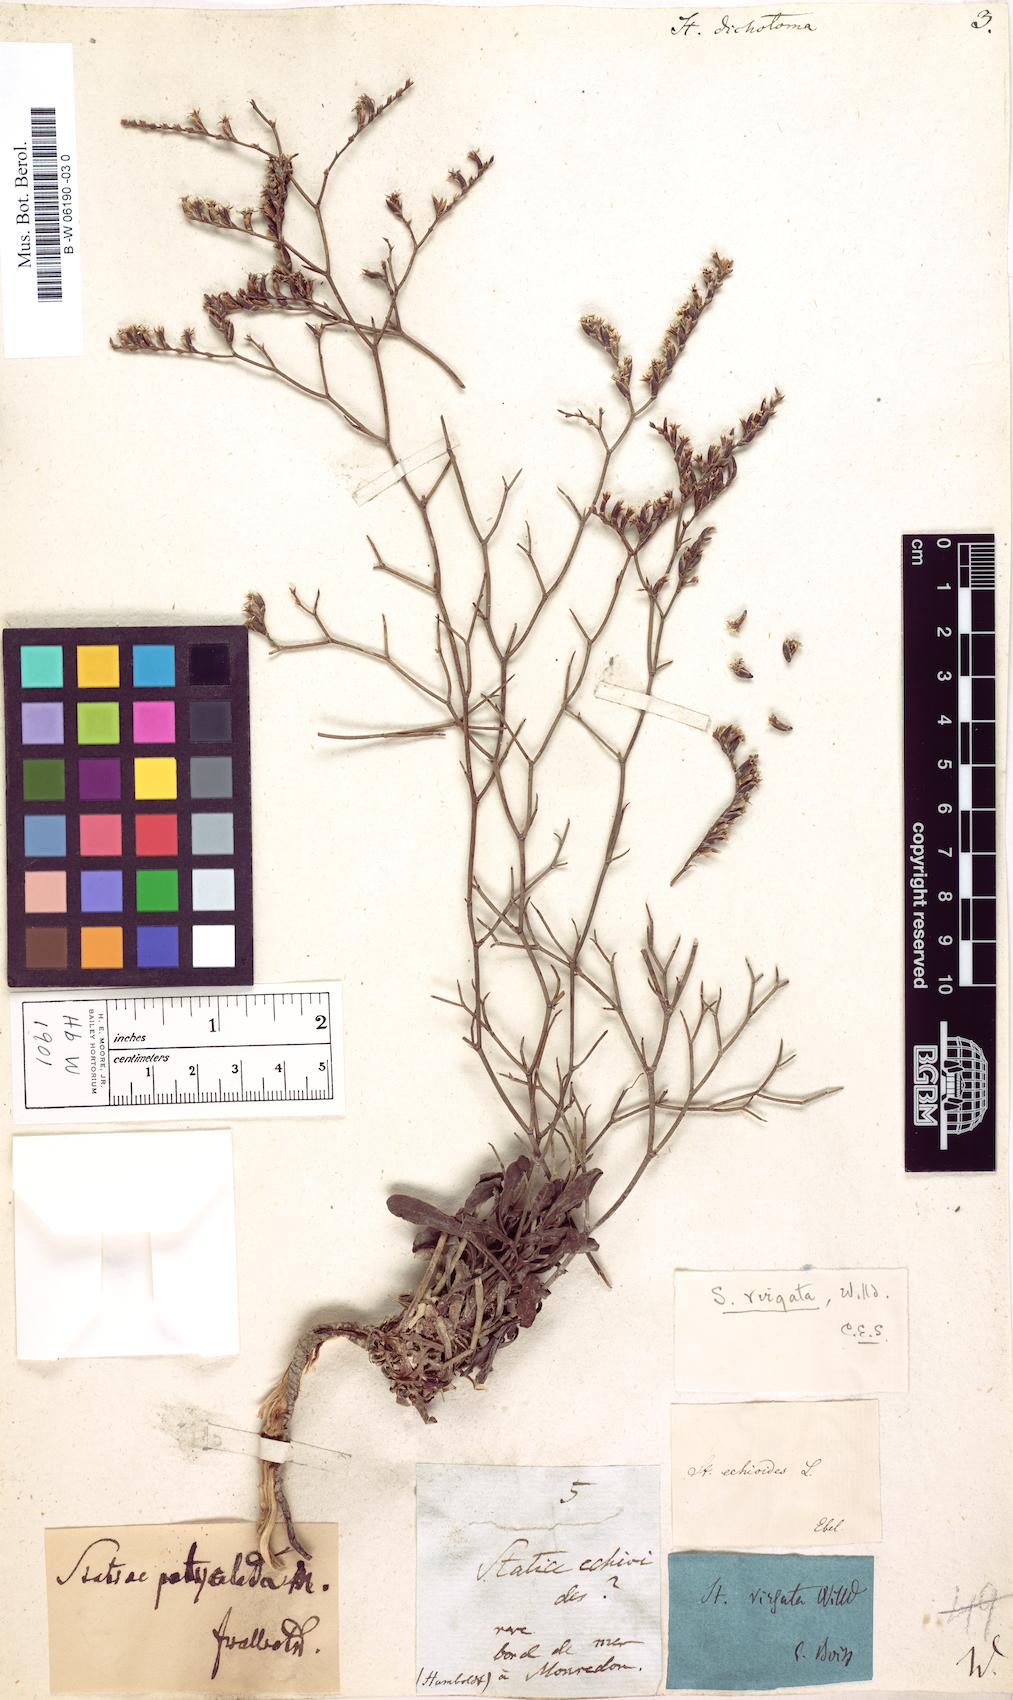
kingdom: Plantae
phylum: Tracheophyta
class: Magnoliopsida
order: Caryophyllales
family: Plumbaginaceae
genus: Limonium
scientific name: Limonium
